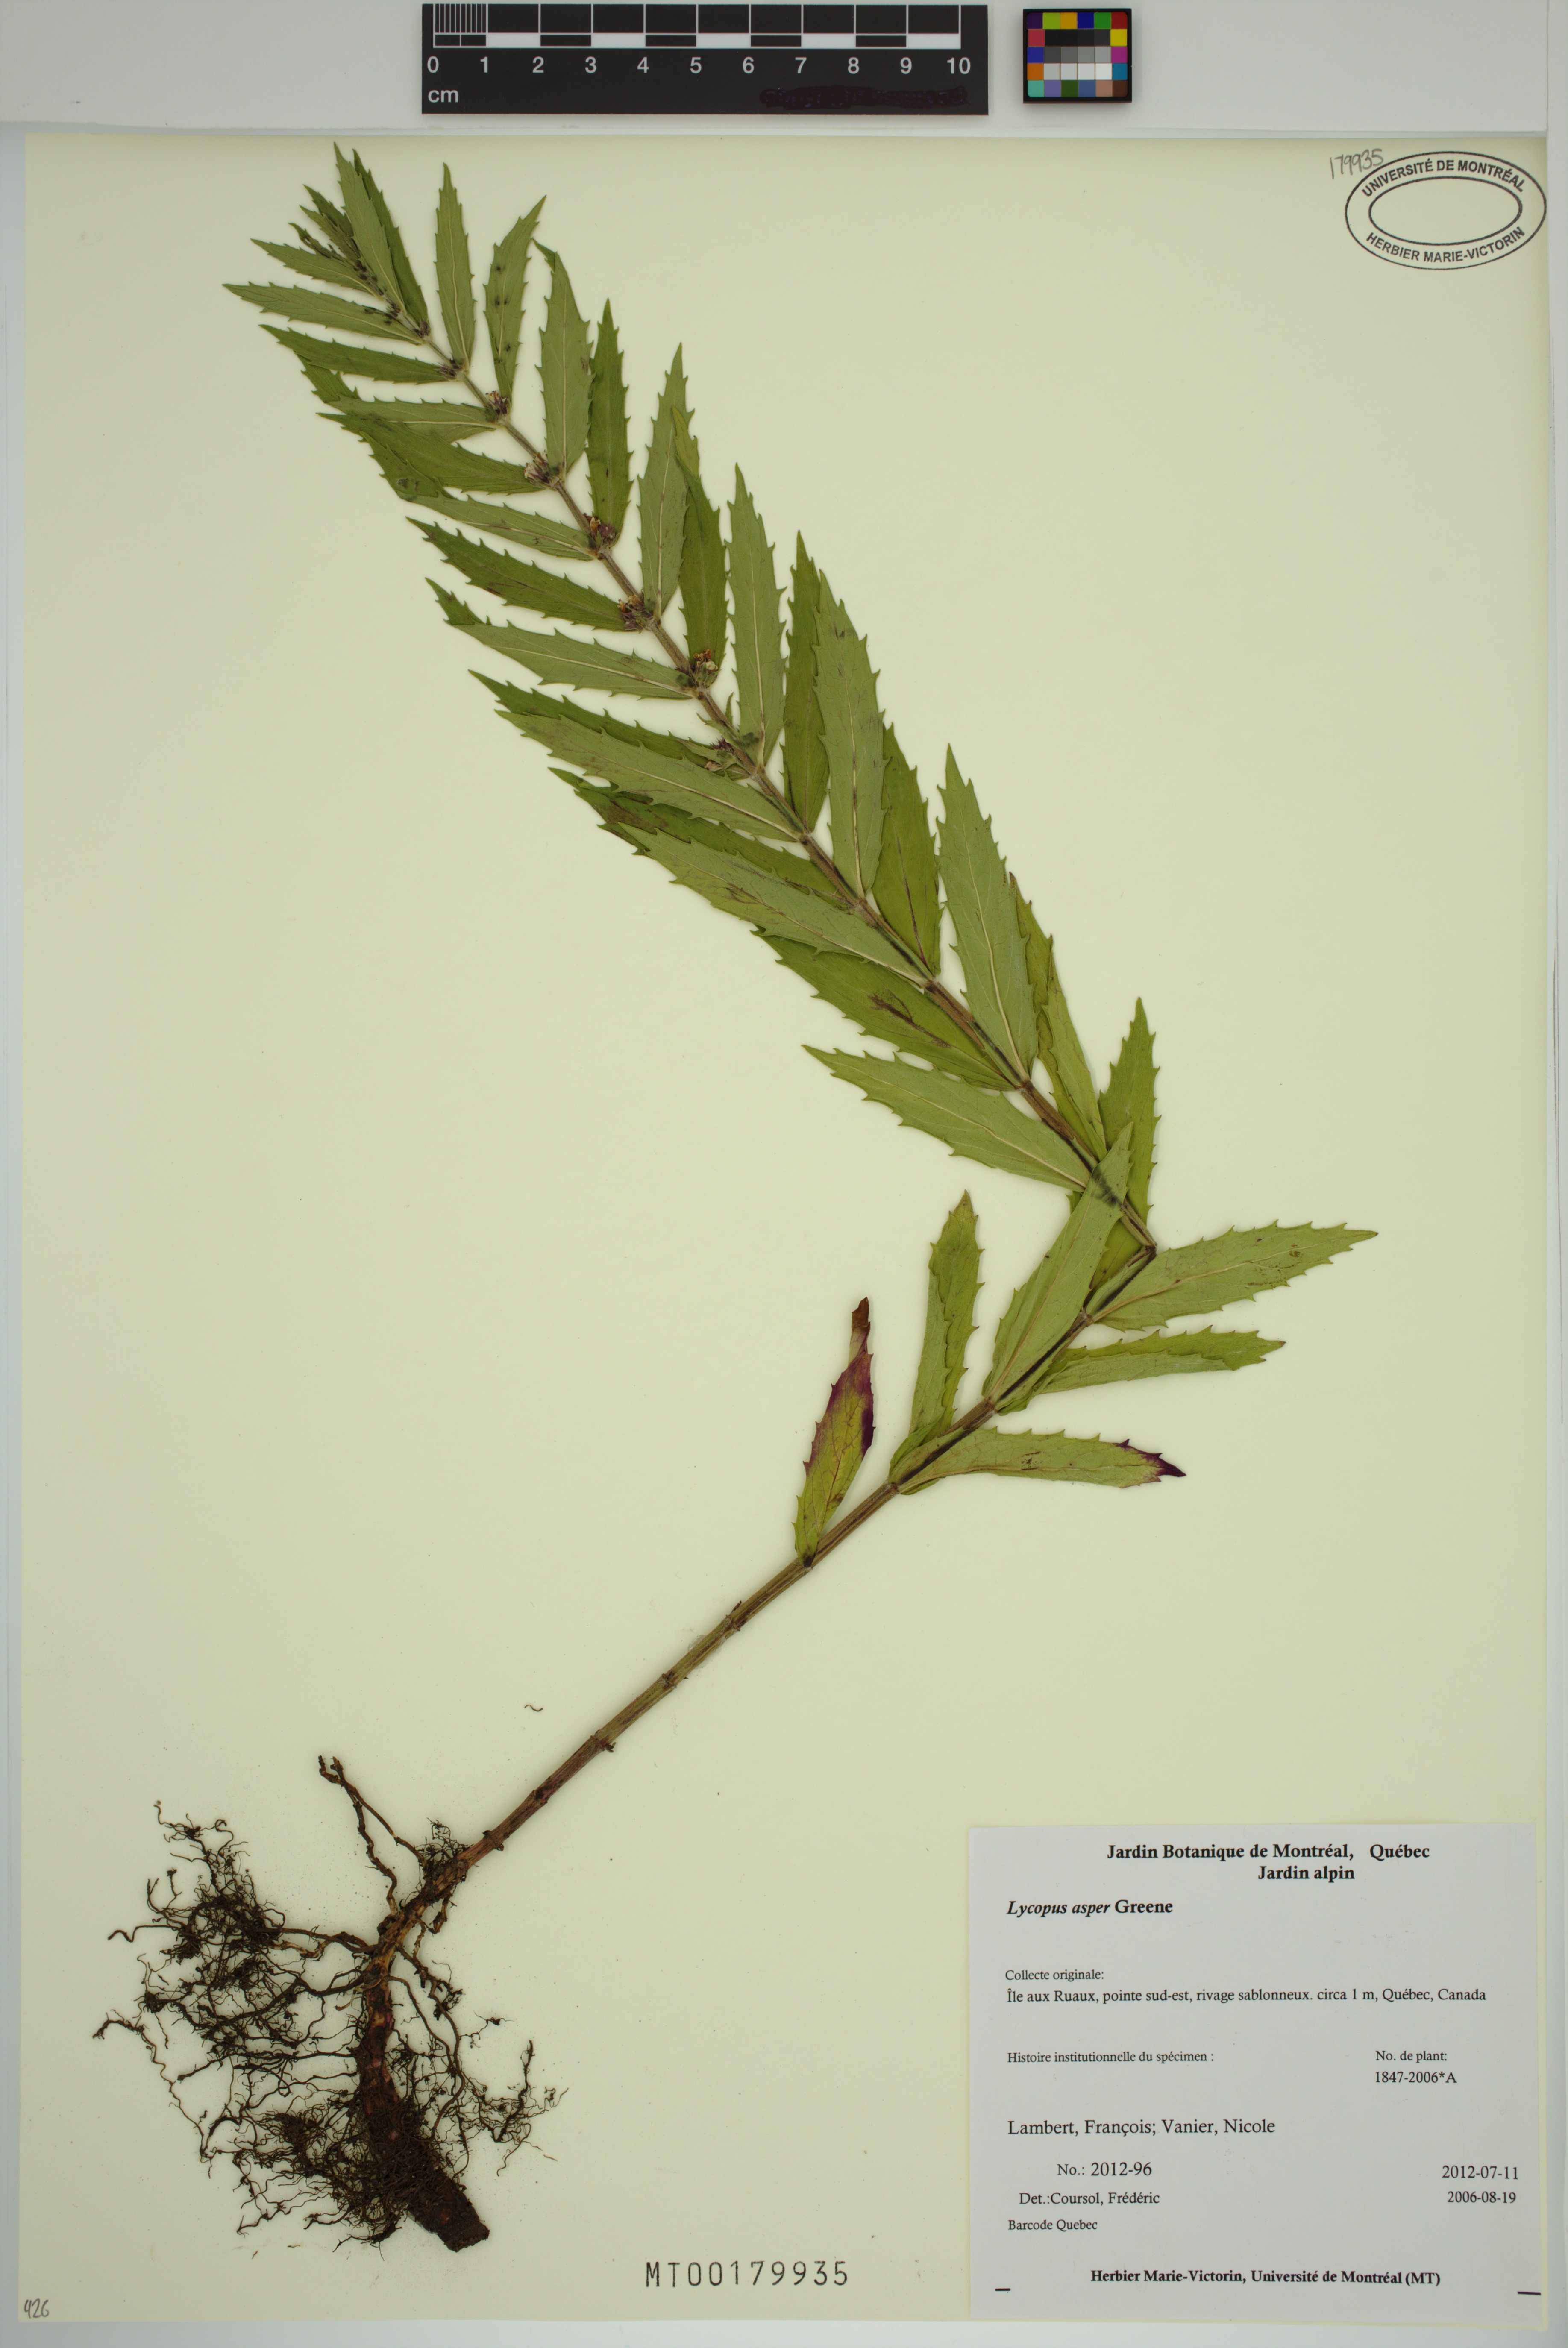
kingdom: Plantae
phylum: Tracheophyta
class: Magnoliopsida
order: Lamiales
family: Lamiaceae
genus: Lycopus
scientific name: Lycopus asper
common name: Rough water-horehound
